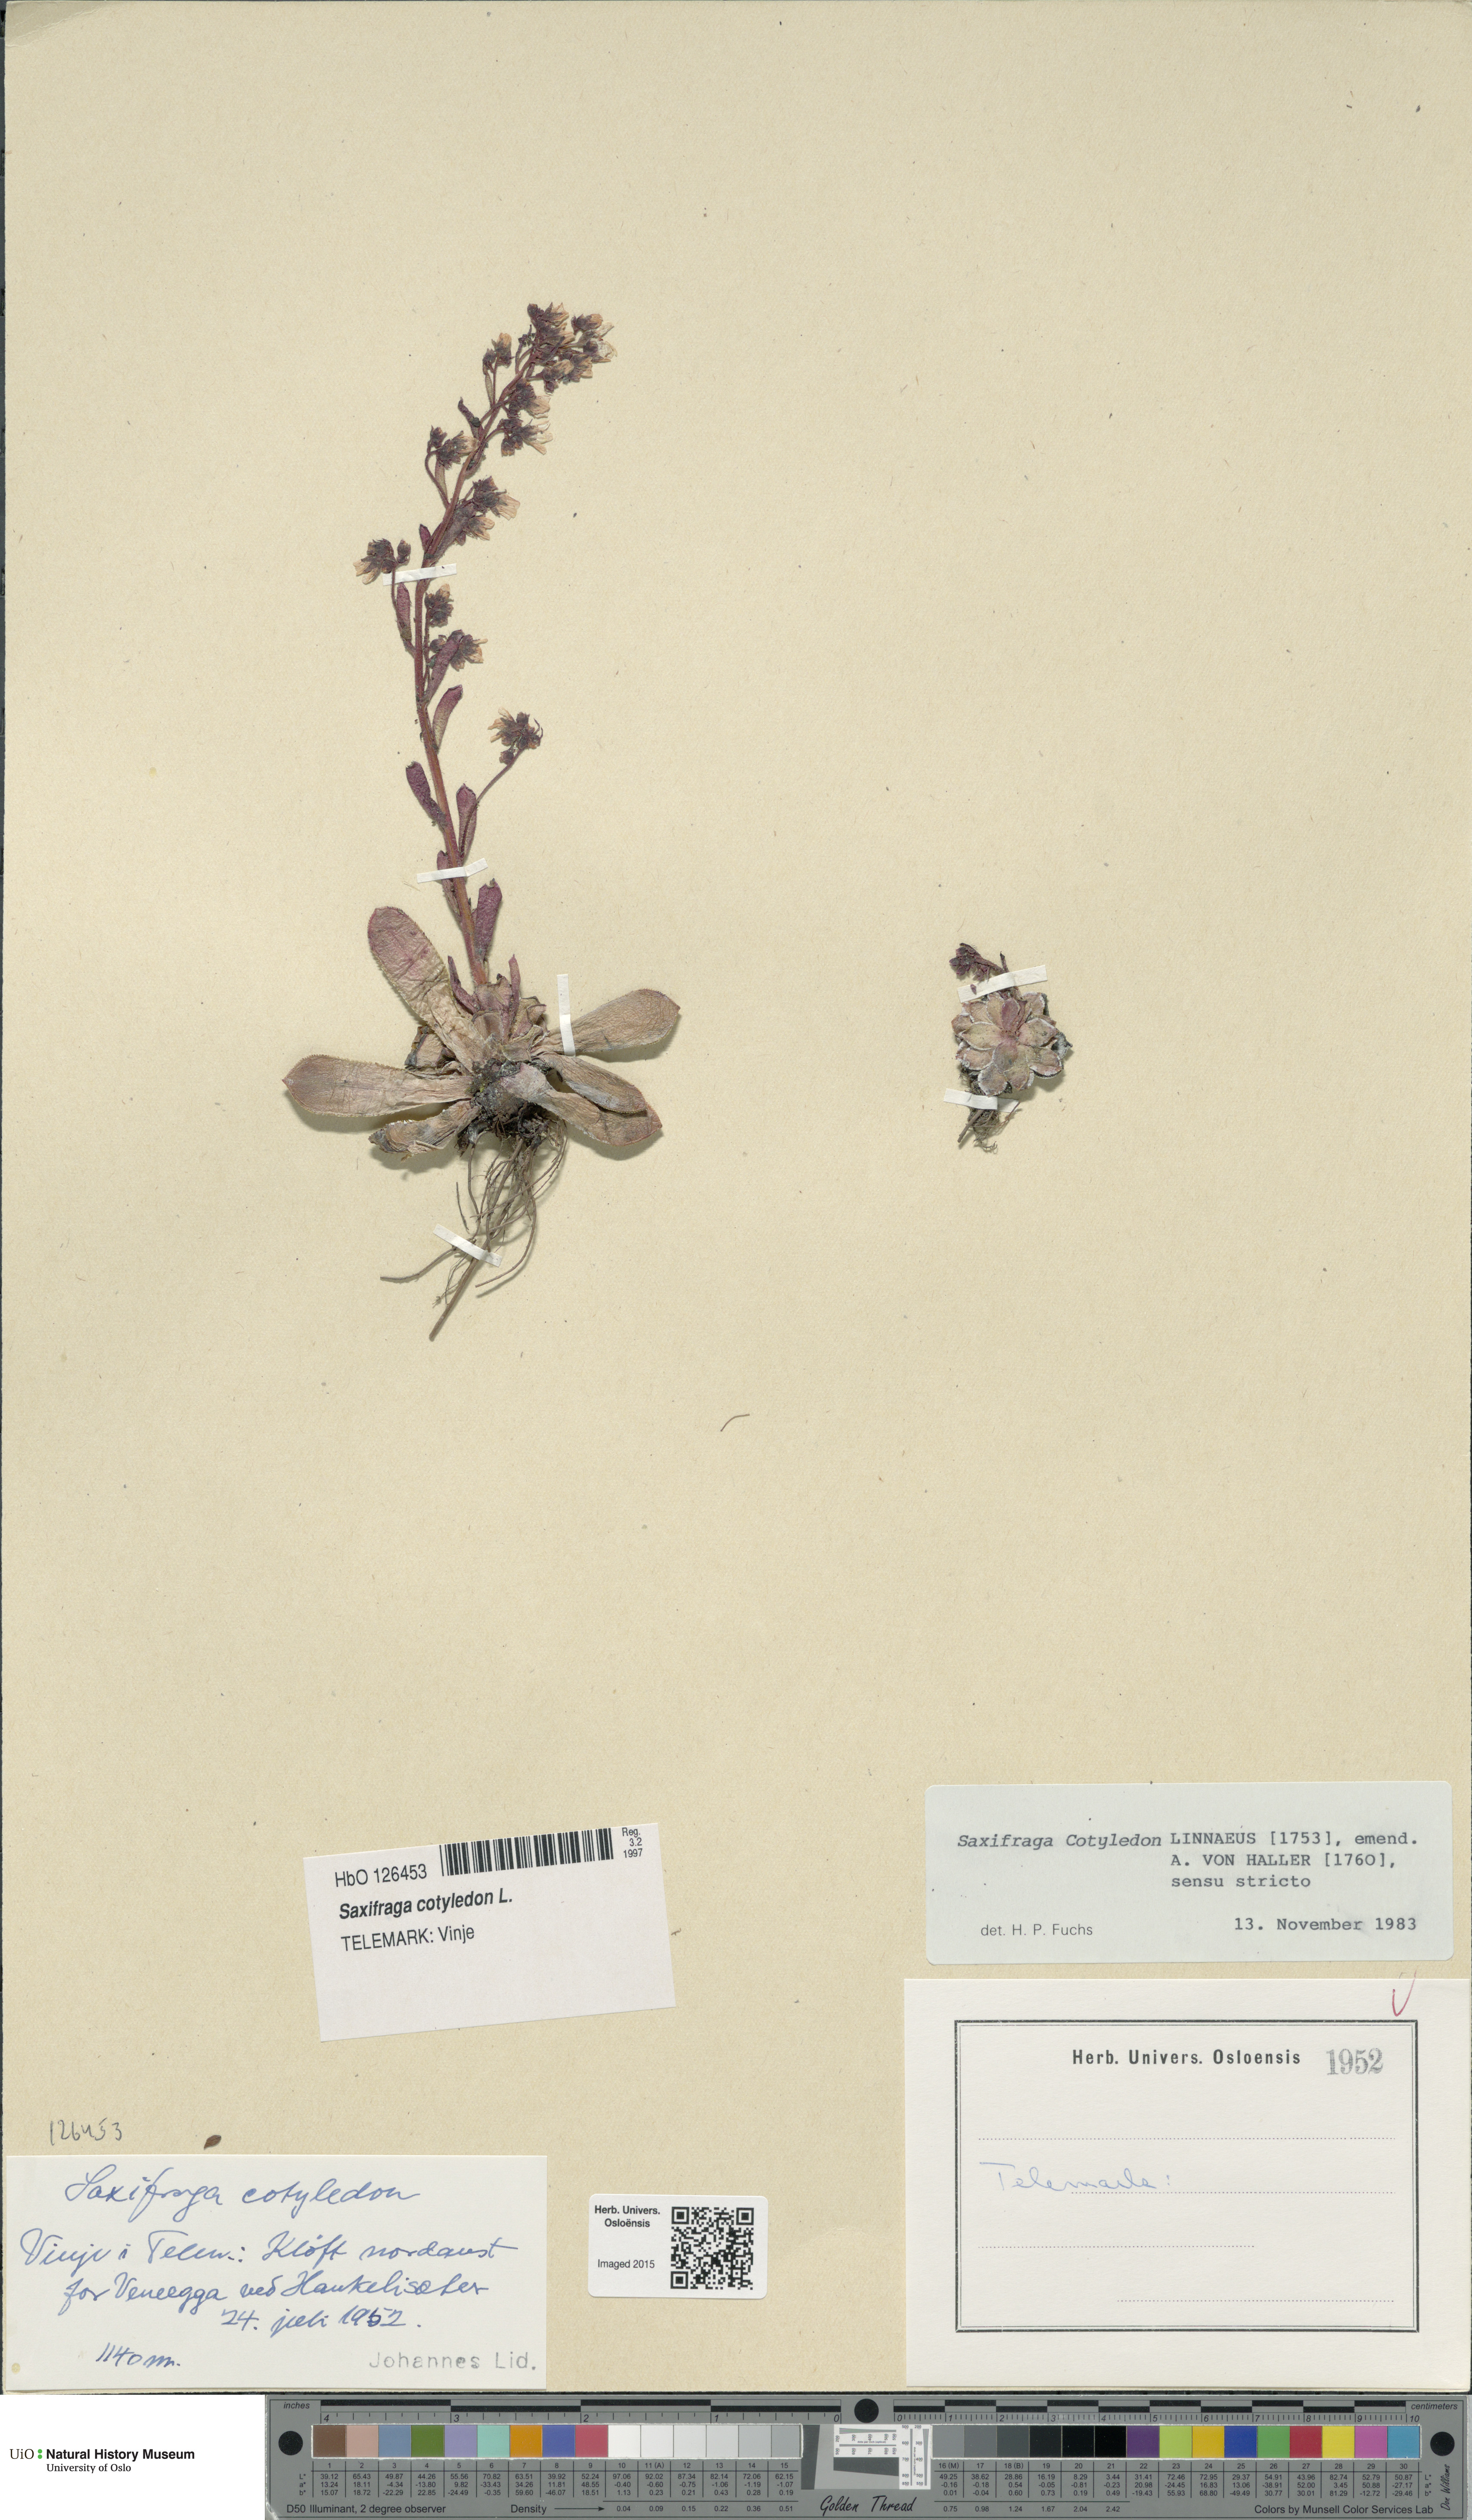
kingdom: Plantae
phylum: Tracheophyta
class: Magnoliopsida
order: Saxifragales
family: Saxifragaceae
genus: Saxifraga
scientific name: Saxifraga cotyledon
